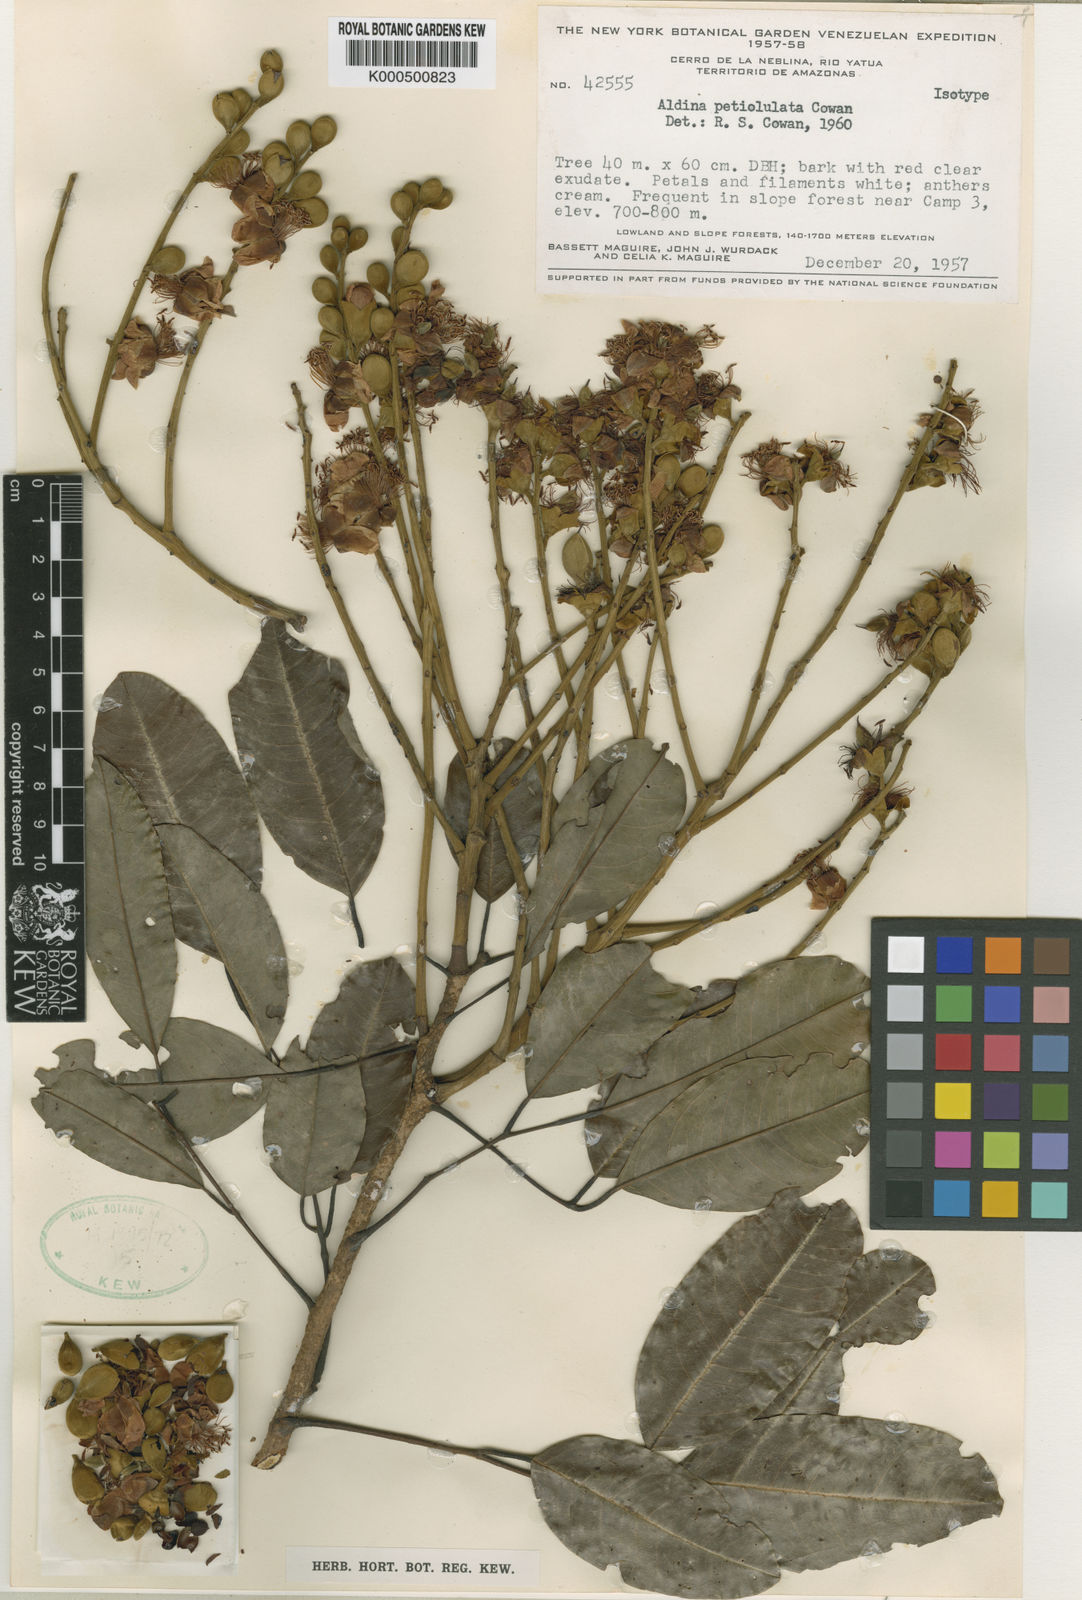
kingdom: Plantae
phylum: Tracheophyta
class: Magnoliopsida
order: Fabales
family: Fabaceae
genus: Aldina
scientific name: Aldina petiolulata
